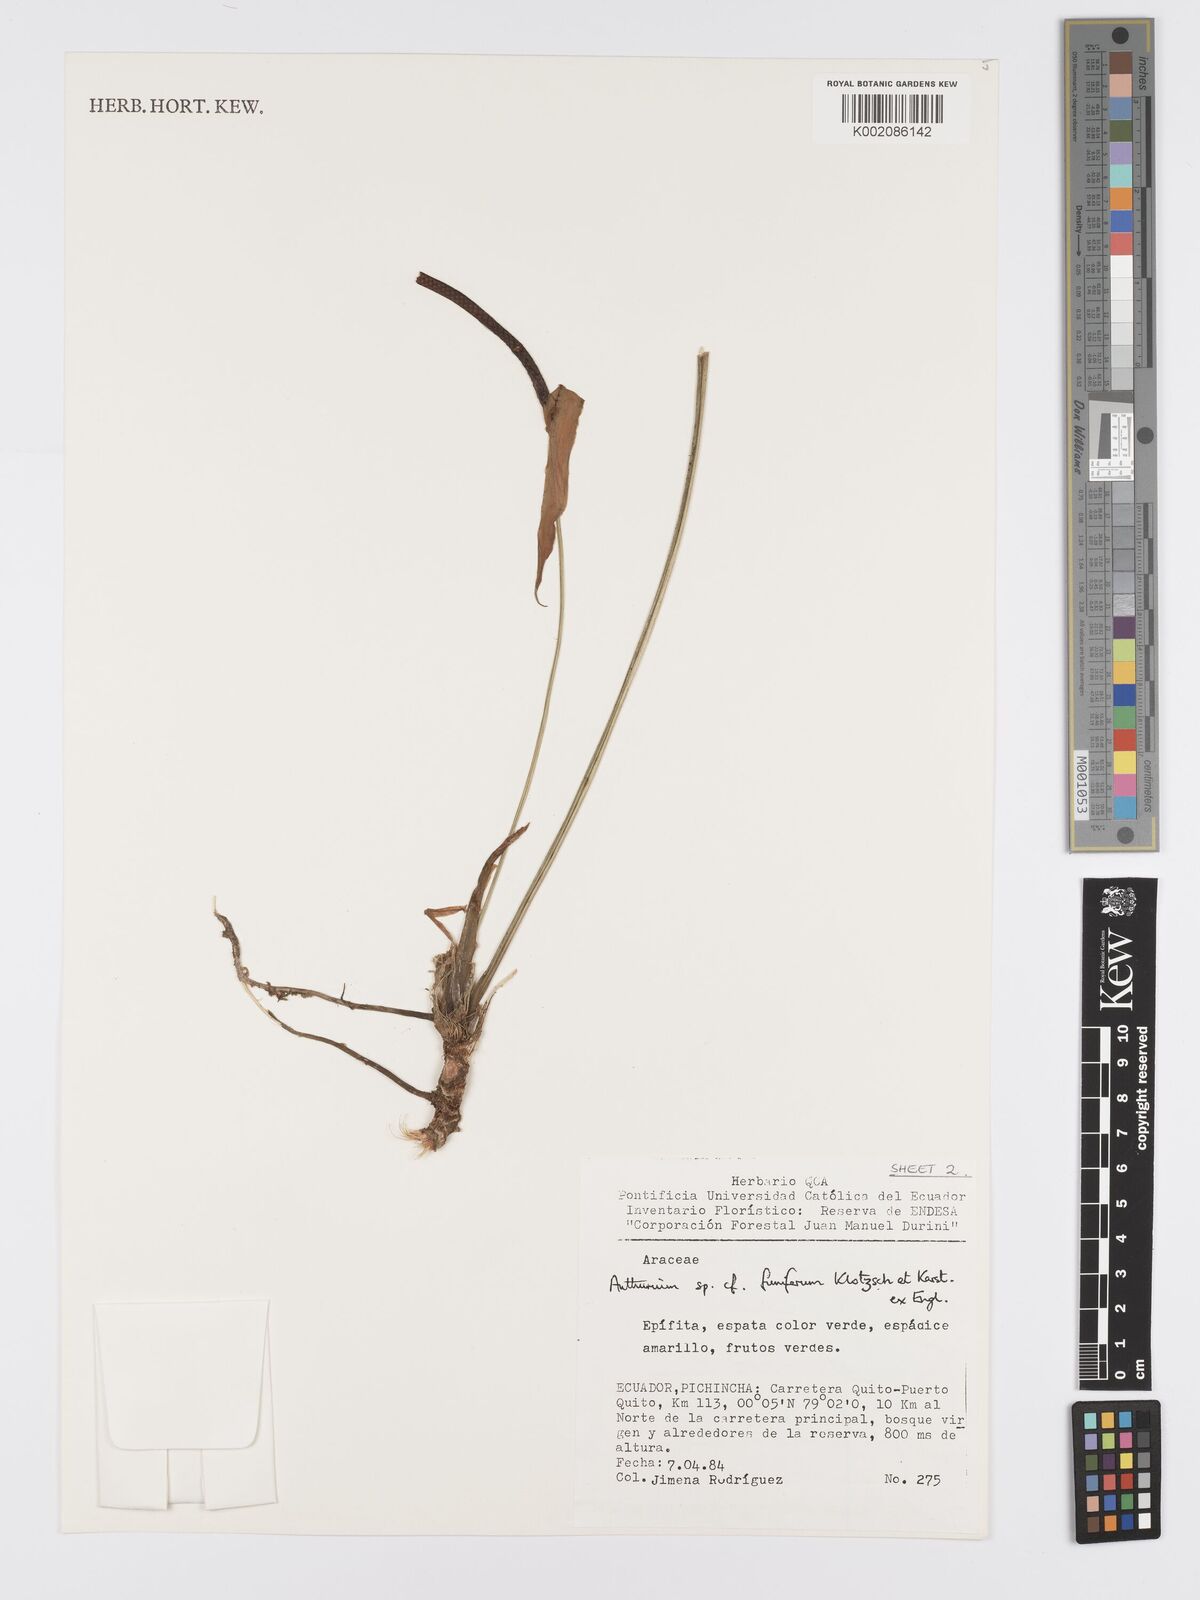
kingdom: Plantae
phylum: Tracheophyta
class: Liliopsida
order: Alismatales
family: Araceae
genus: Anthurium
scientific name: Anthurium funiferum
